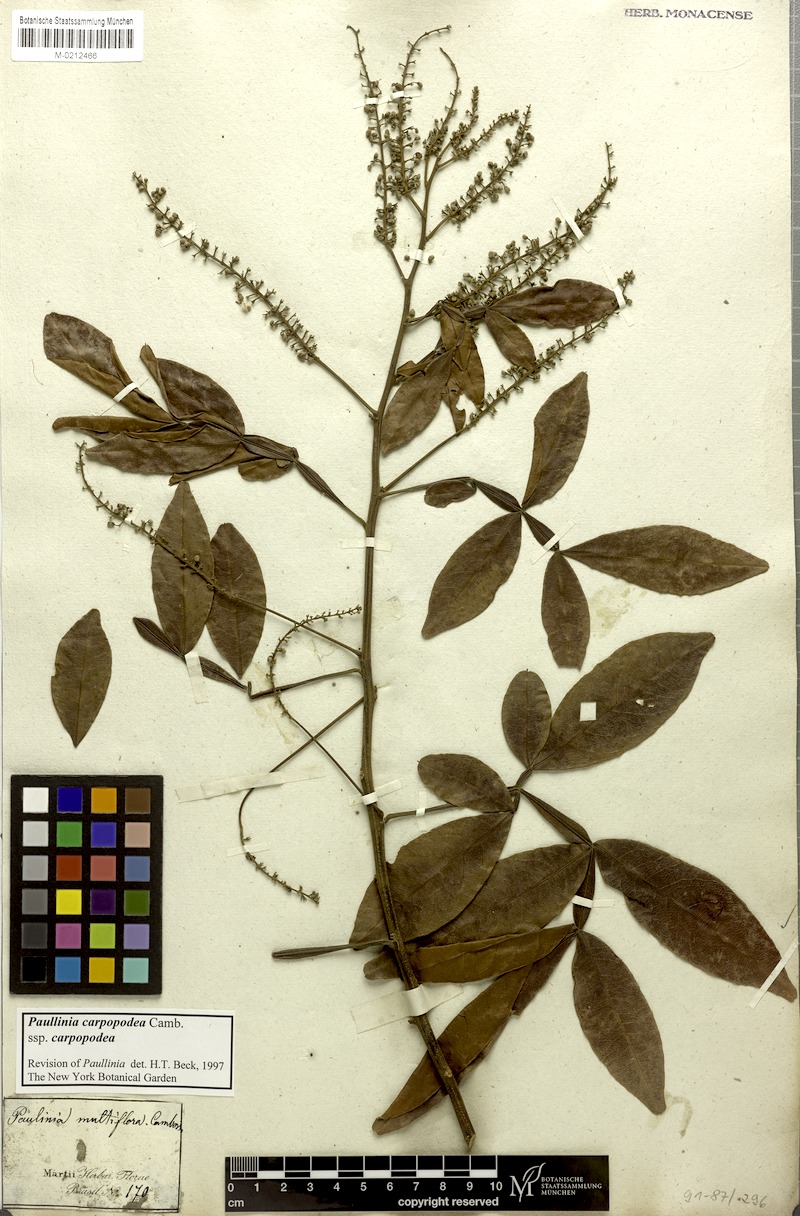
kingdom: Plantae
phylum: Tracheophyta
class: Magnoliopsida
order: Sapindales
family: Sapindaceae
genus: Paullinia
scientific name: Paullinia carpopoda
